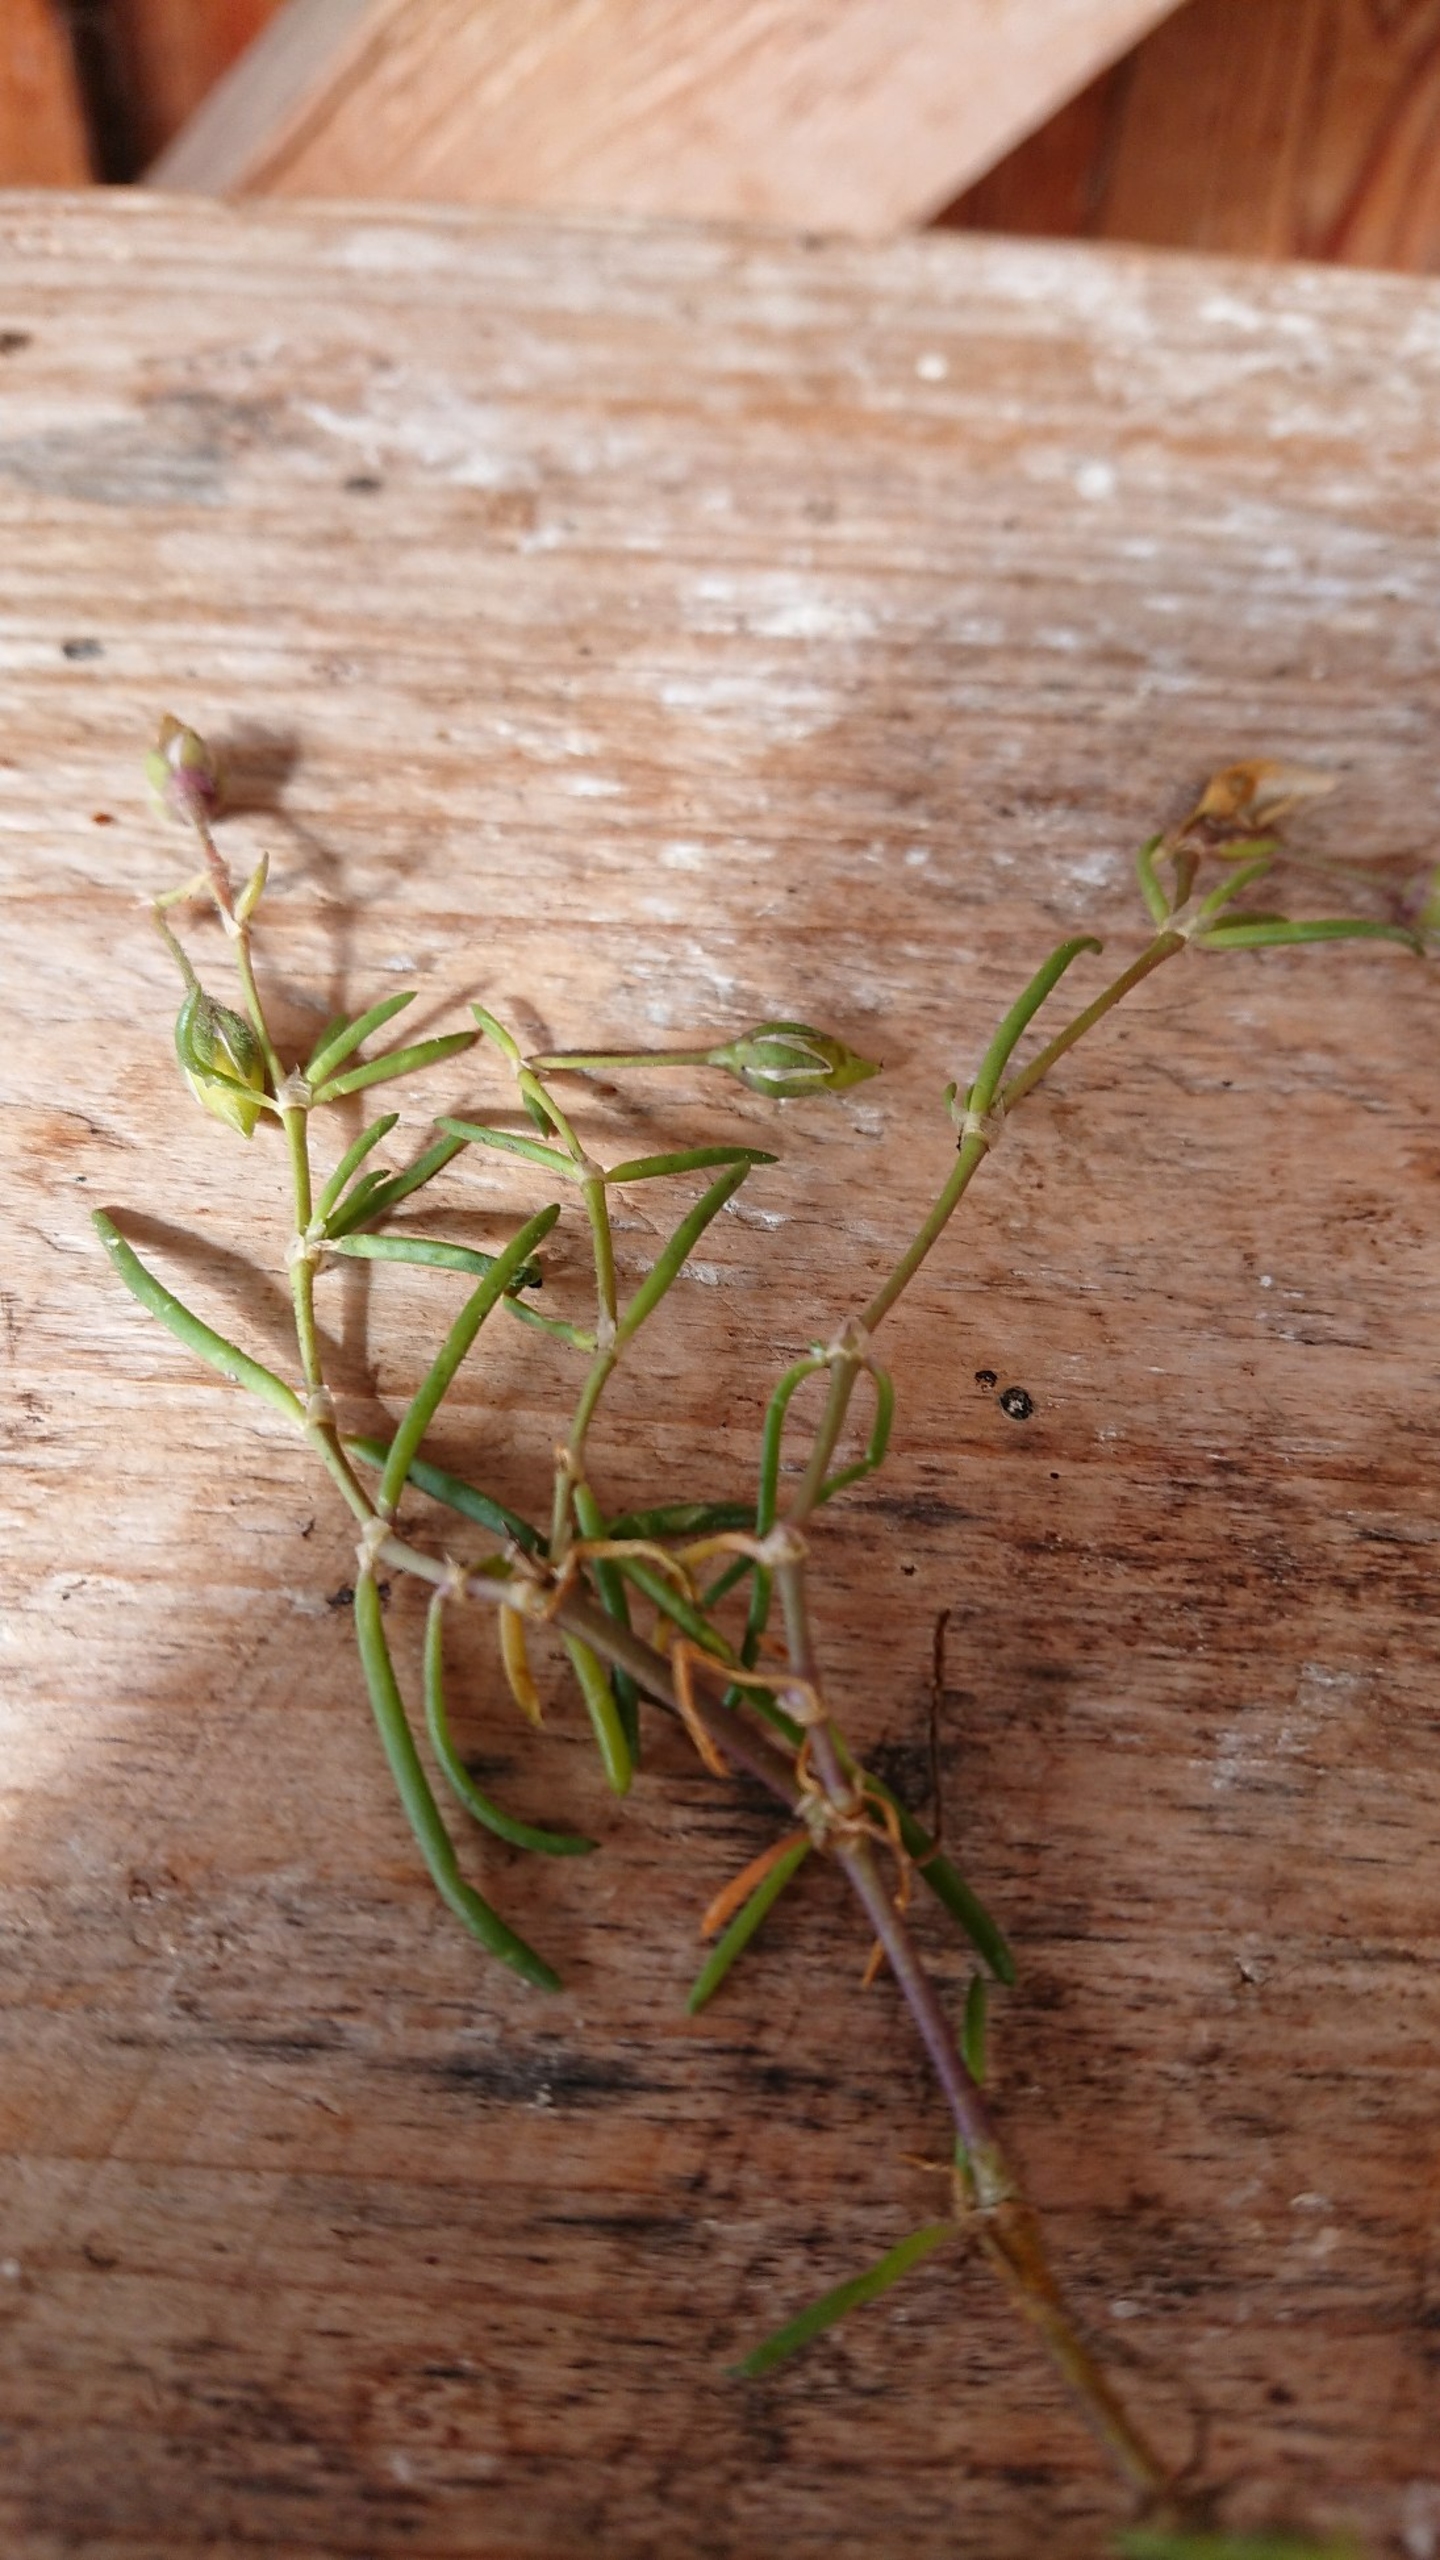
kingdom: Plantae
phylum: Tracheophyta
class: Magnoliopsida
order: Caryophyllales
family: Caryophyllaceae
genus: Spergularia
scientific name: Spergularia media
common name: Vingefrøet hindeknæ
